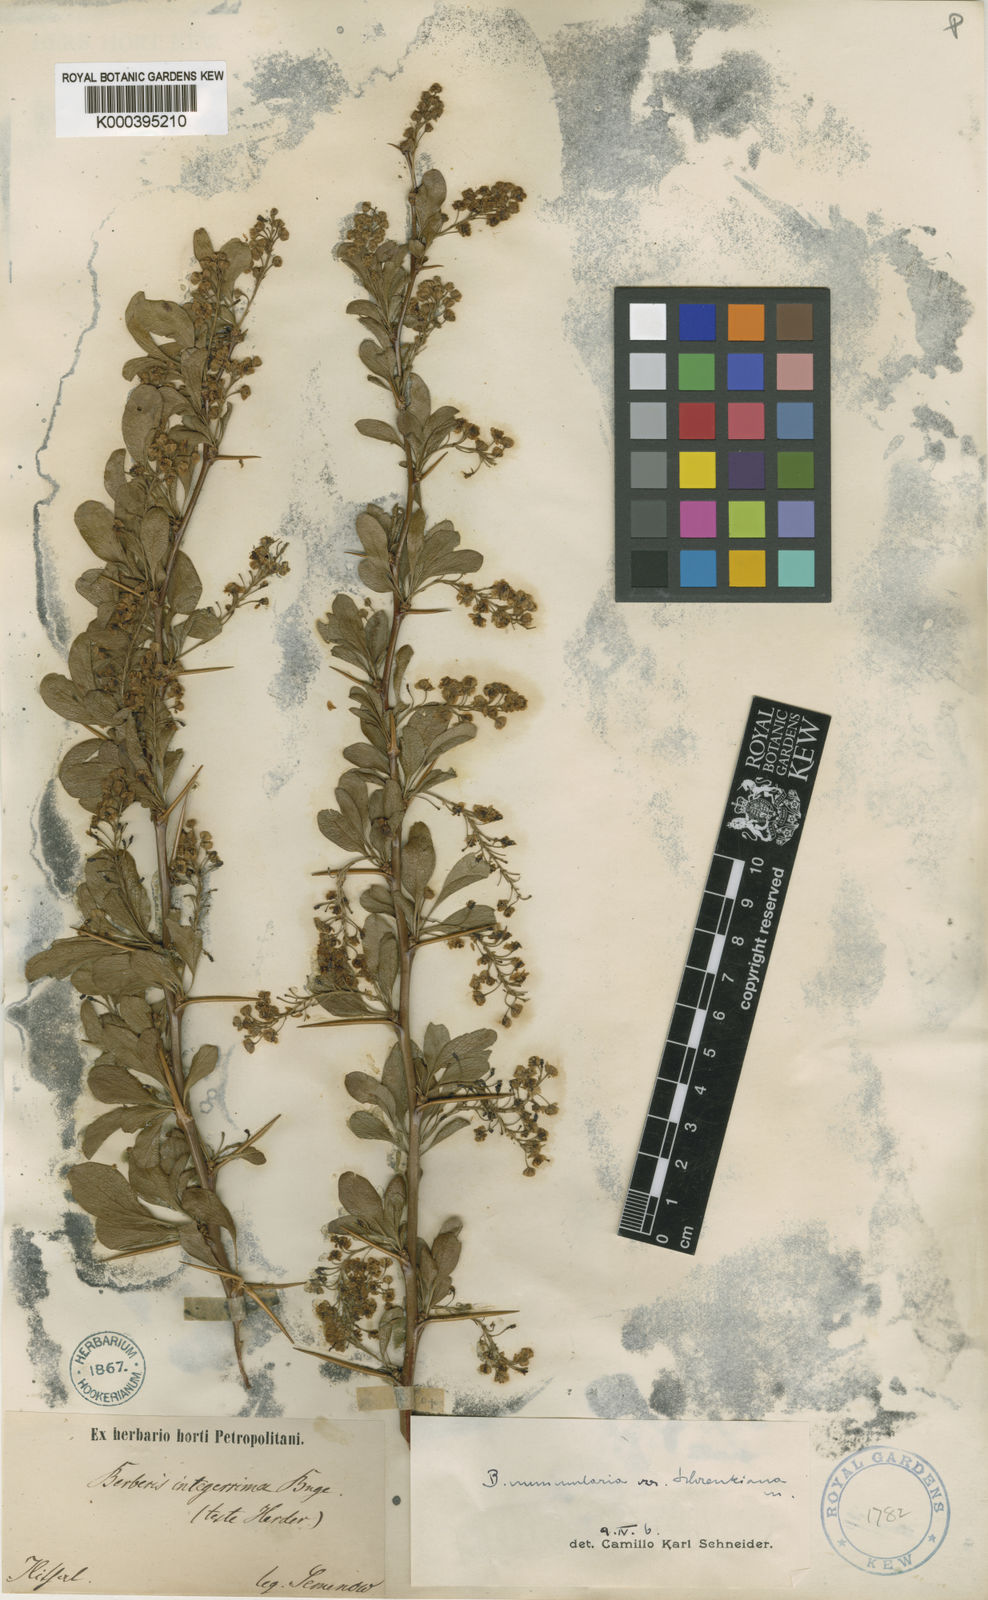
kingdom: Plantae
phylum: Tracheophyta
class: Magnoliopsida
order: Ranunculales
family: Berberidaceae
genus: Berberis
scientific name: Berberis integerrima
